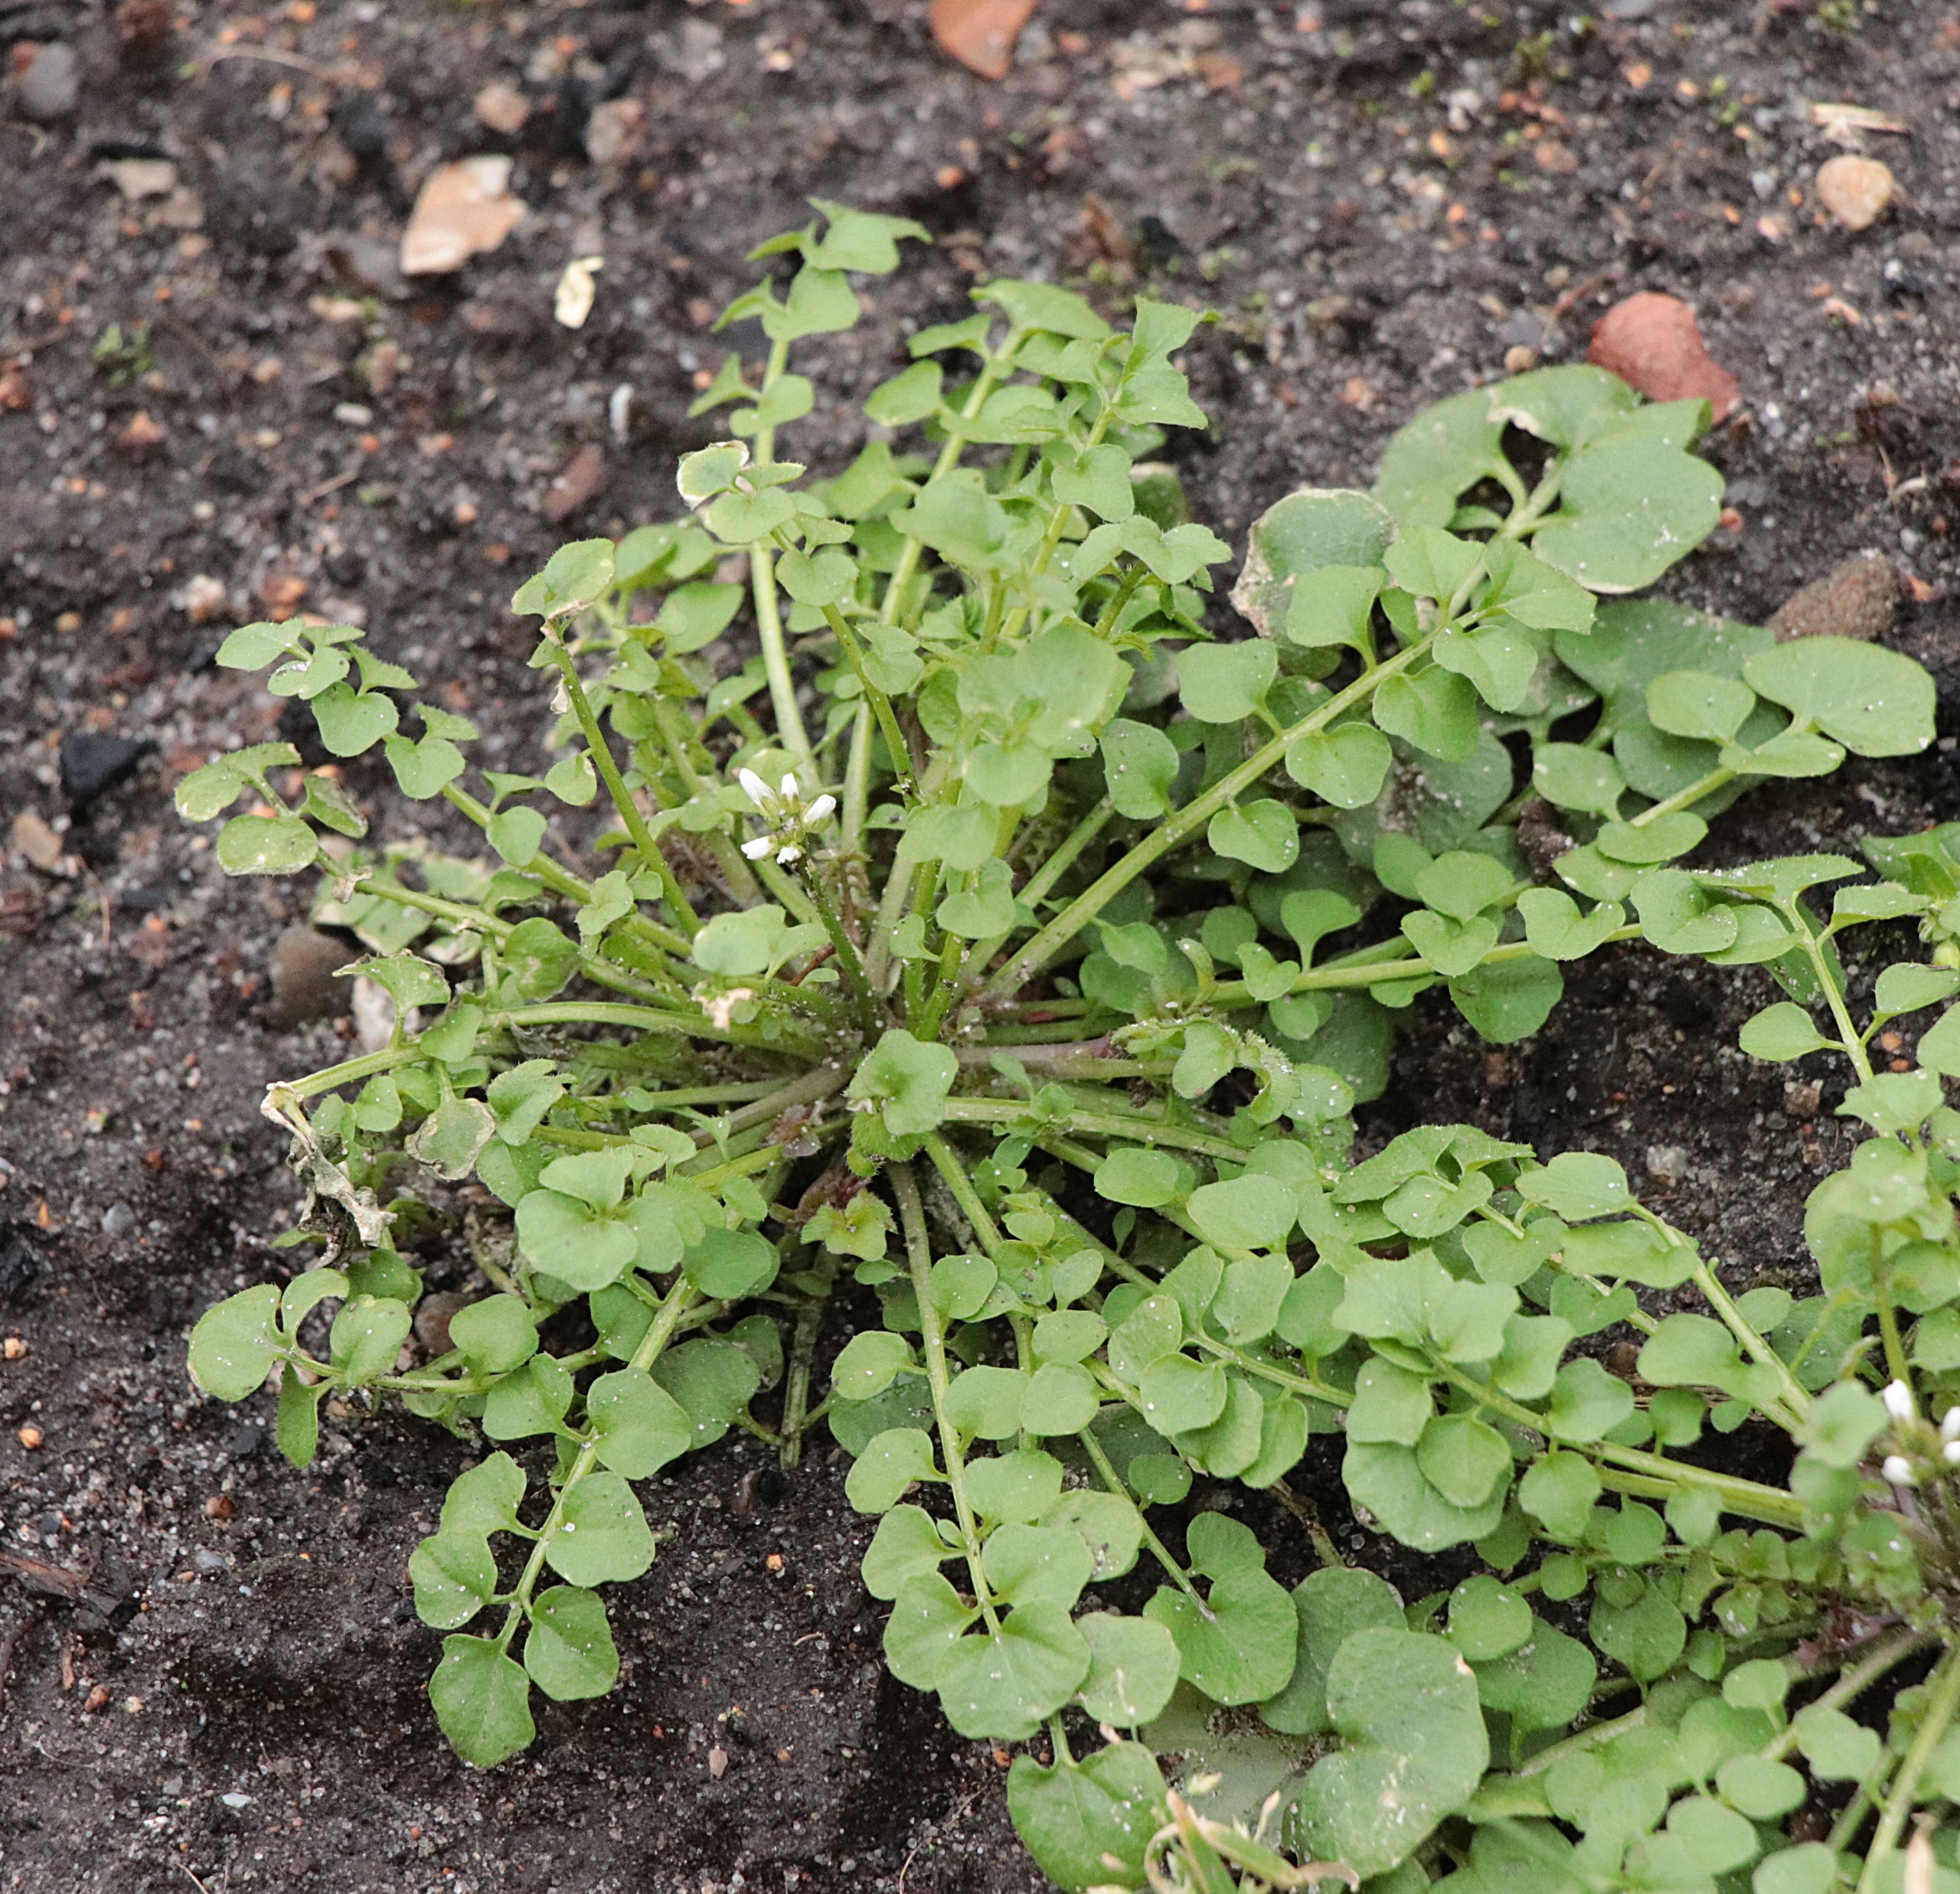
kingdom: Plantae
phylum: Tracheophyta
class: Magnoliopsida
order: Brassicales
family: Brassicaceae
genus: Cardamine
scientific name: Cardamine hirsuta
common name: Roset-springklap
